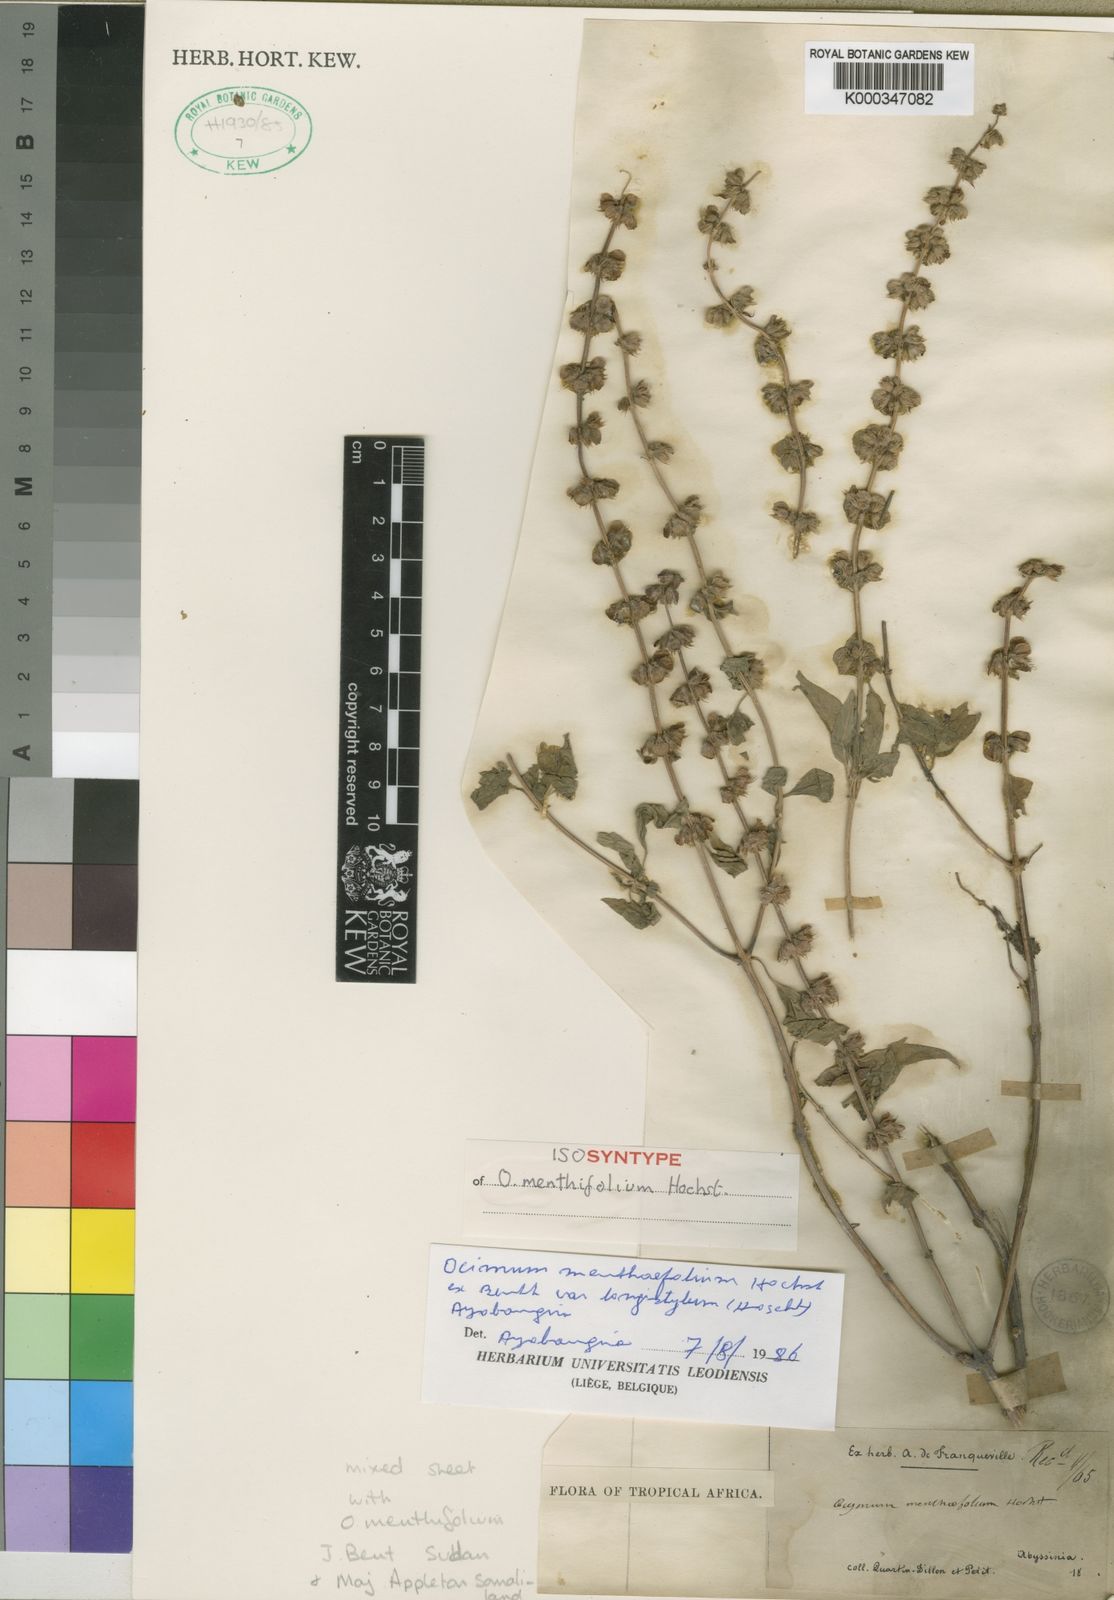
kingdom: Plantae
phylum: Tracheophyta
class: Magnoliopsida
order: Lamiales
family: Lamiaceae
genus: Ocimum
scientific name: Ocimum
